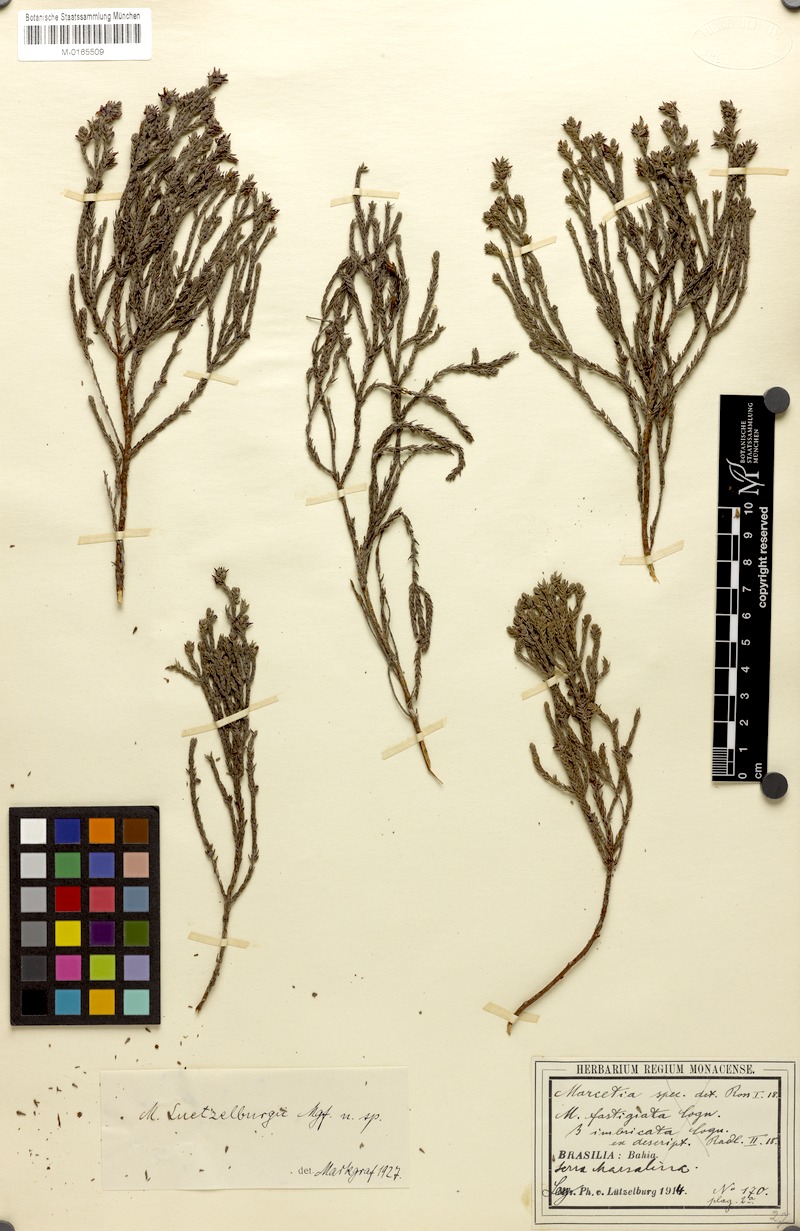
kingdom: Plantae
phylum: Tracheophyta
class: Magnoliopsida
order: Myrtales
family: Melastomataceae
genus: Marcetia
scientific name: Marcetia luetzelburgii
